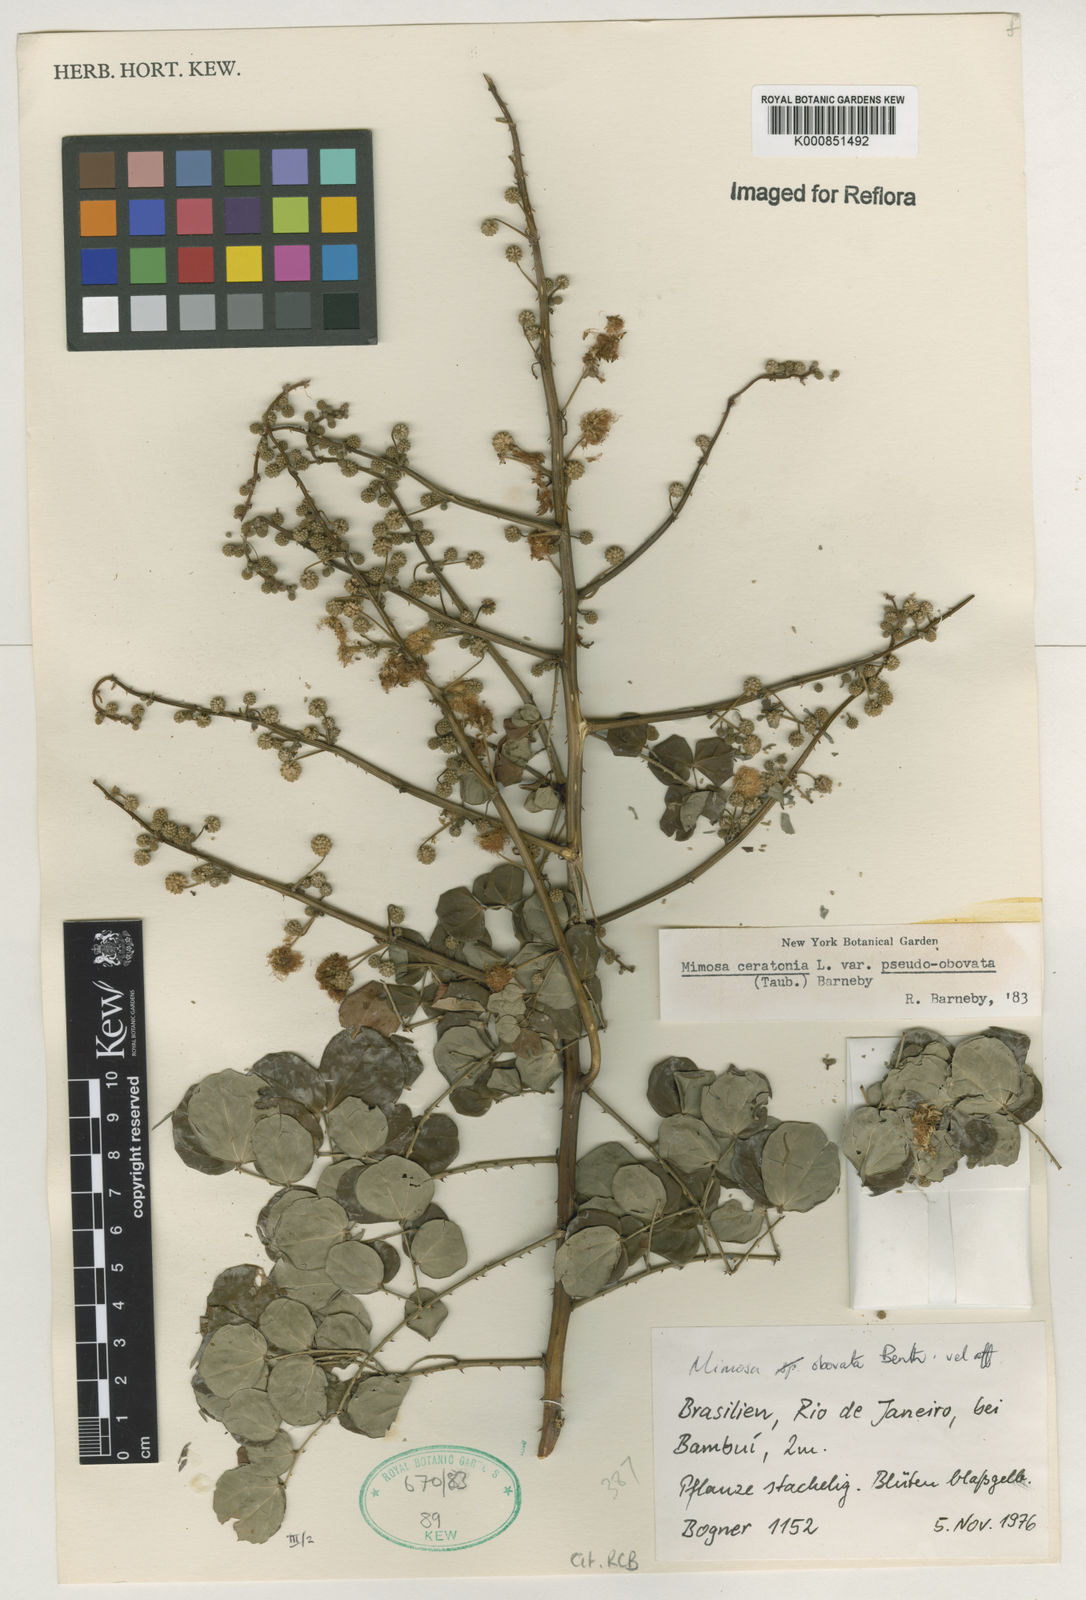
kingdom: Plantae
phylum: Tracheophyta
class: Magnoliopsida
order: Fabales
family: Fabaceae
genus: Mimosa
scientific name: Mimosa ceratonia
